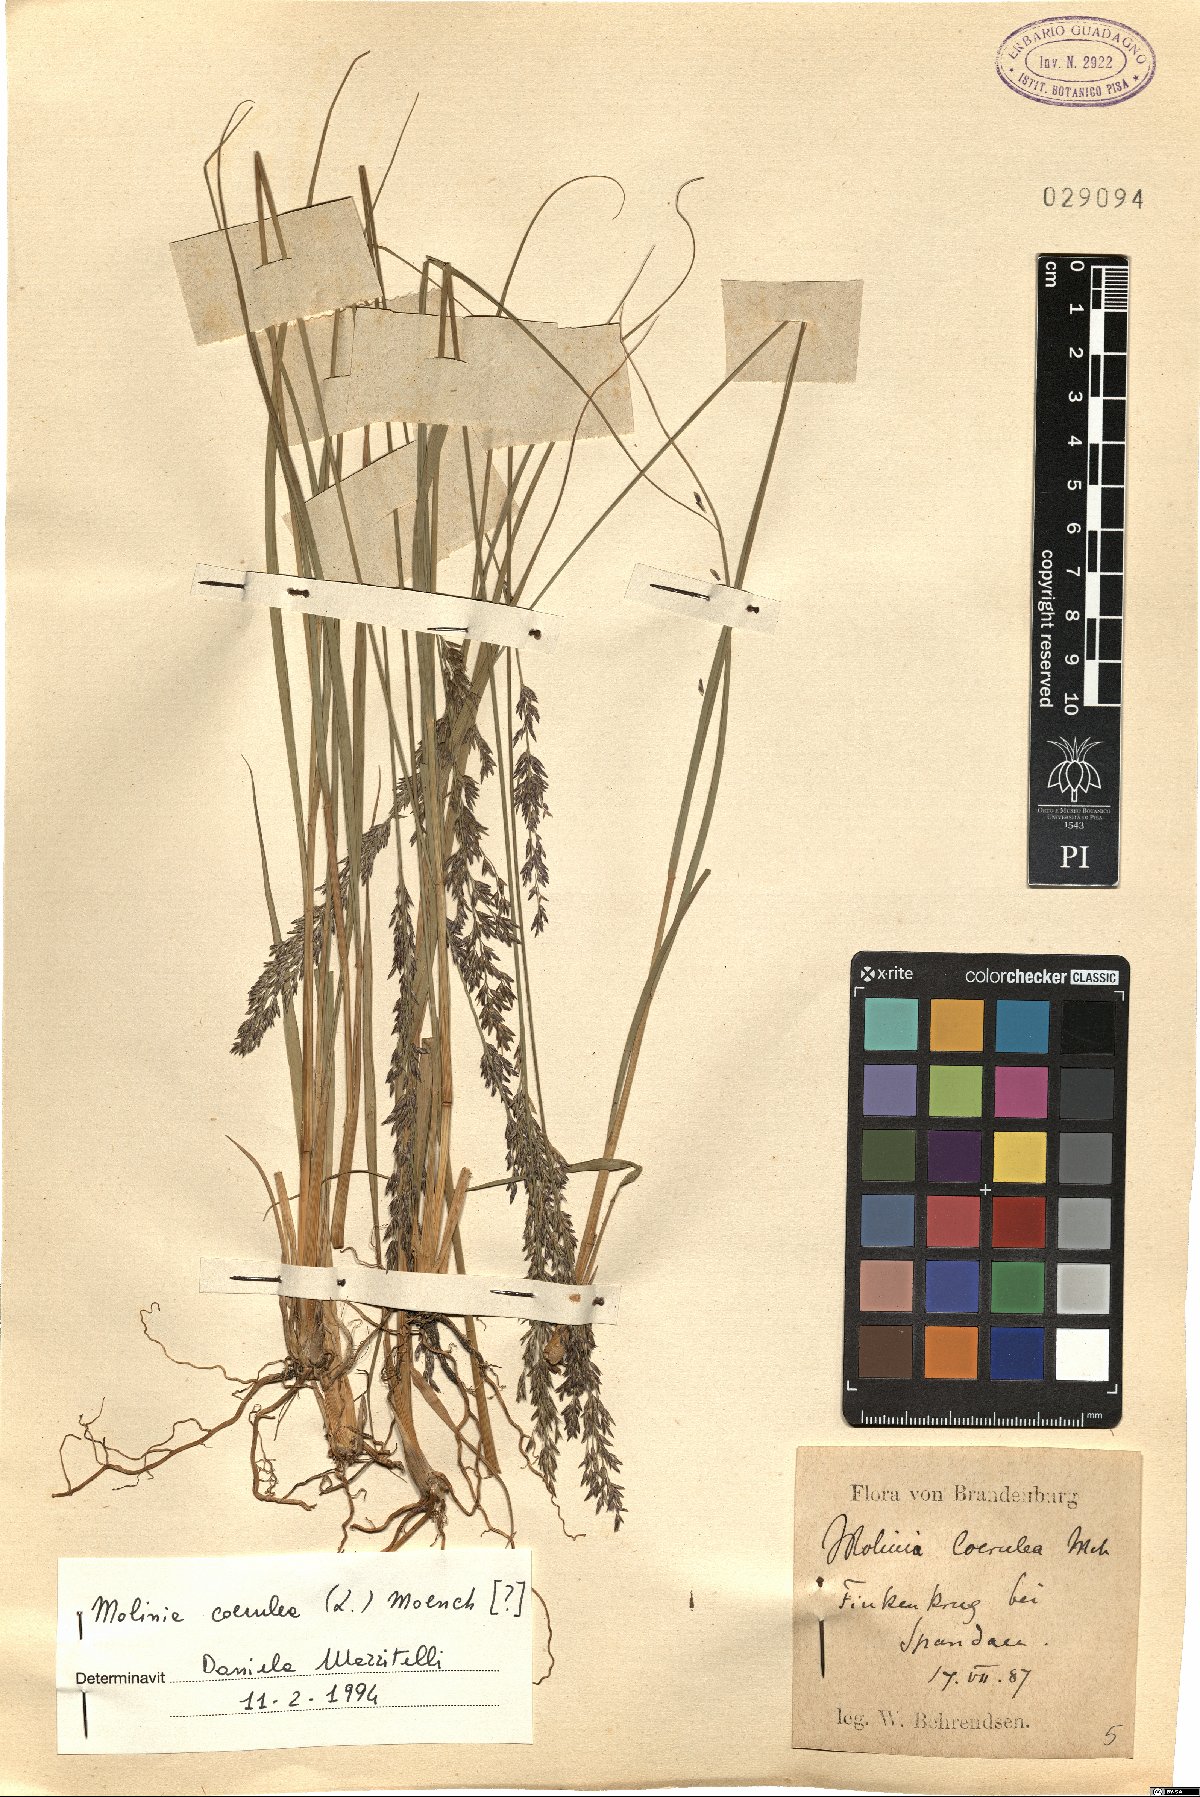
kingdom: Plantae
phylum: Tracheophyta
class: Liliopsida
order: Poales
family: Poaceae
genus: Molinia
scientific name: Molinia caerulea
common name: Purple moor-grass
